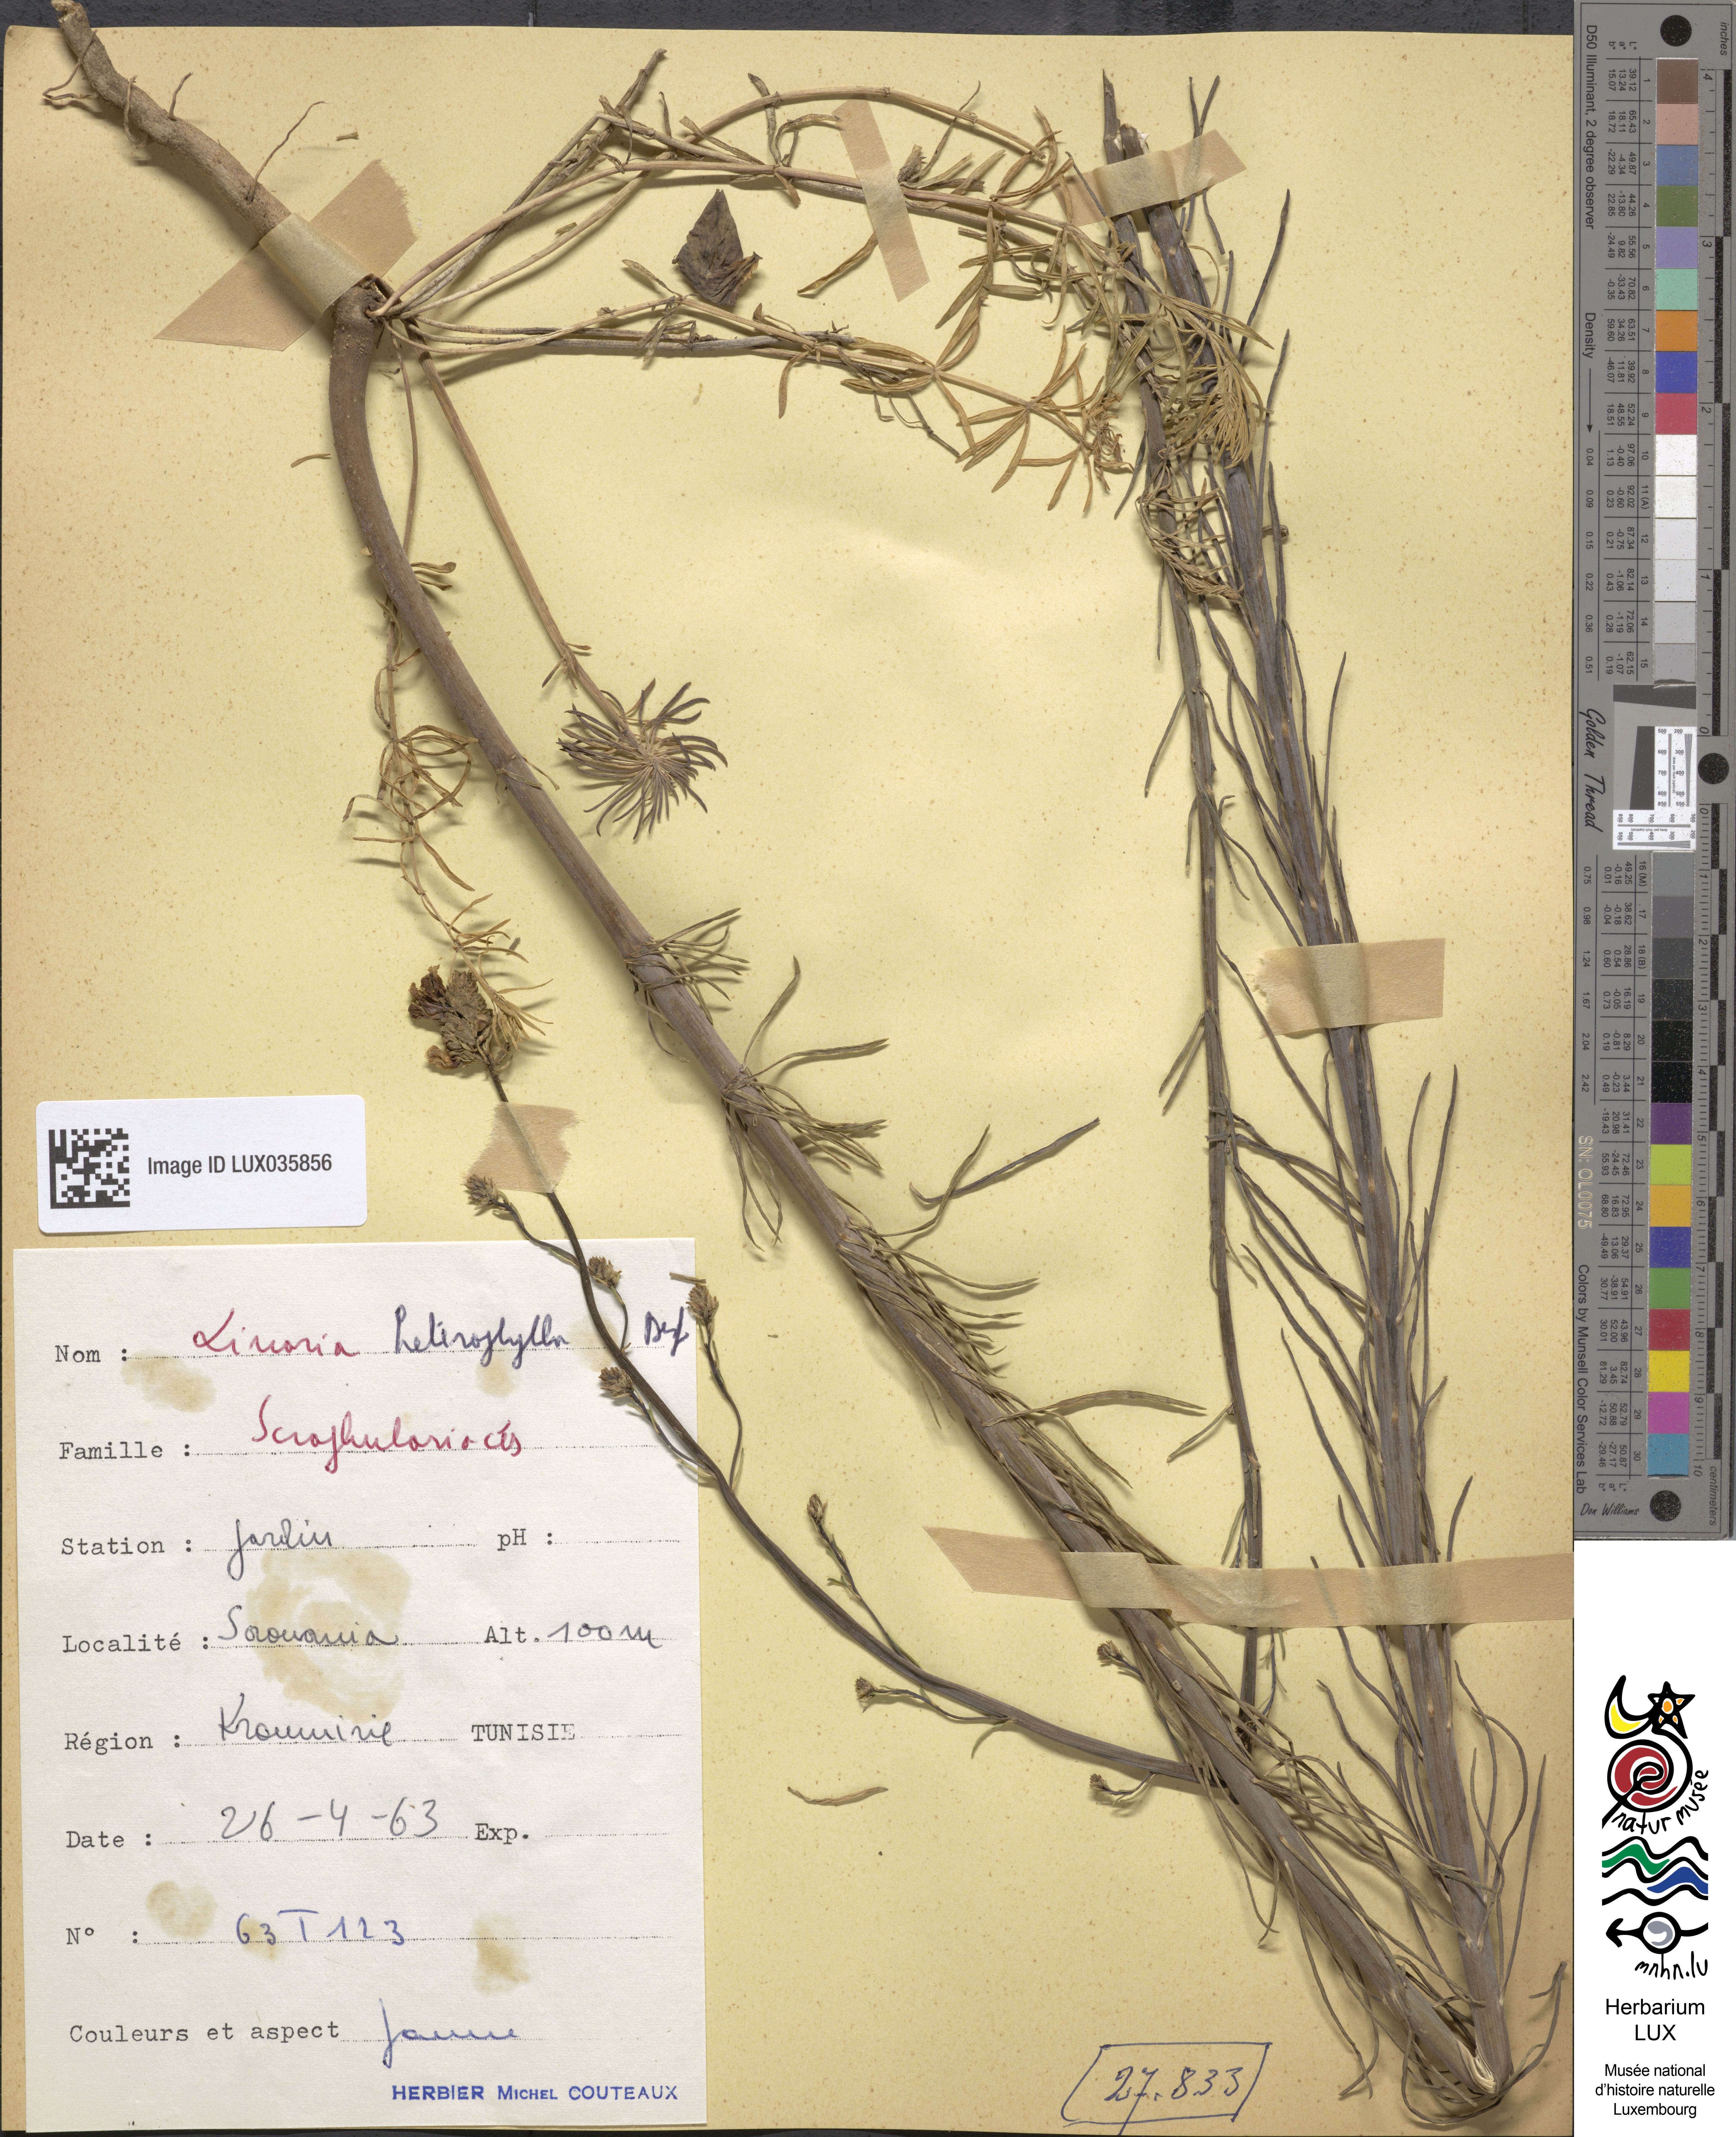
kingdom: Plantae
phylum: Tracheophyta
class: Magnoliopsida
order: Lamiales
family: Plantaginaceae
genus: Linaria
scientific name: Linaria multicaulis
